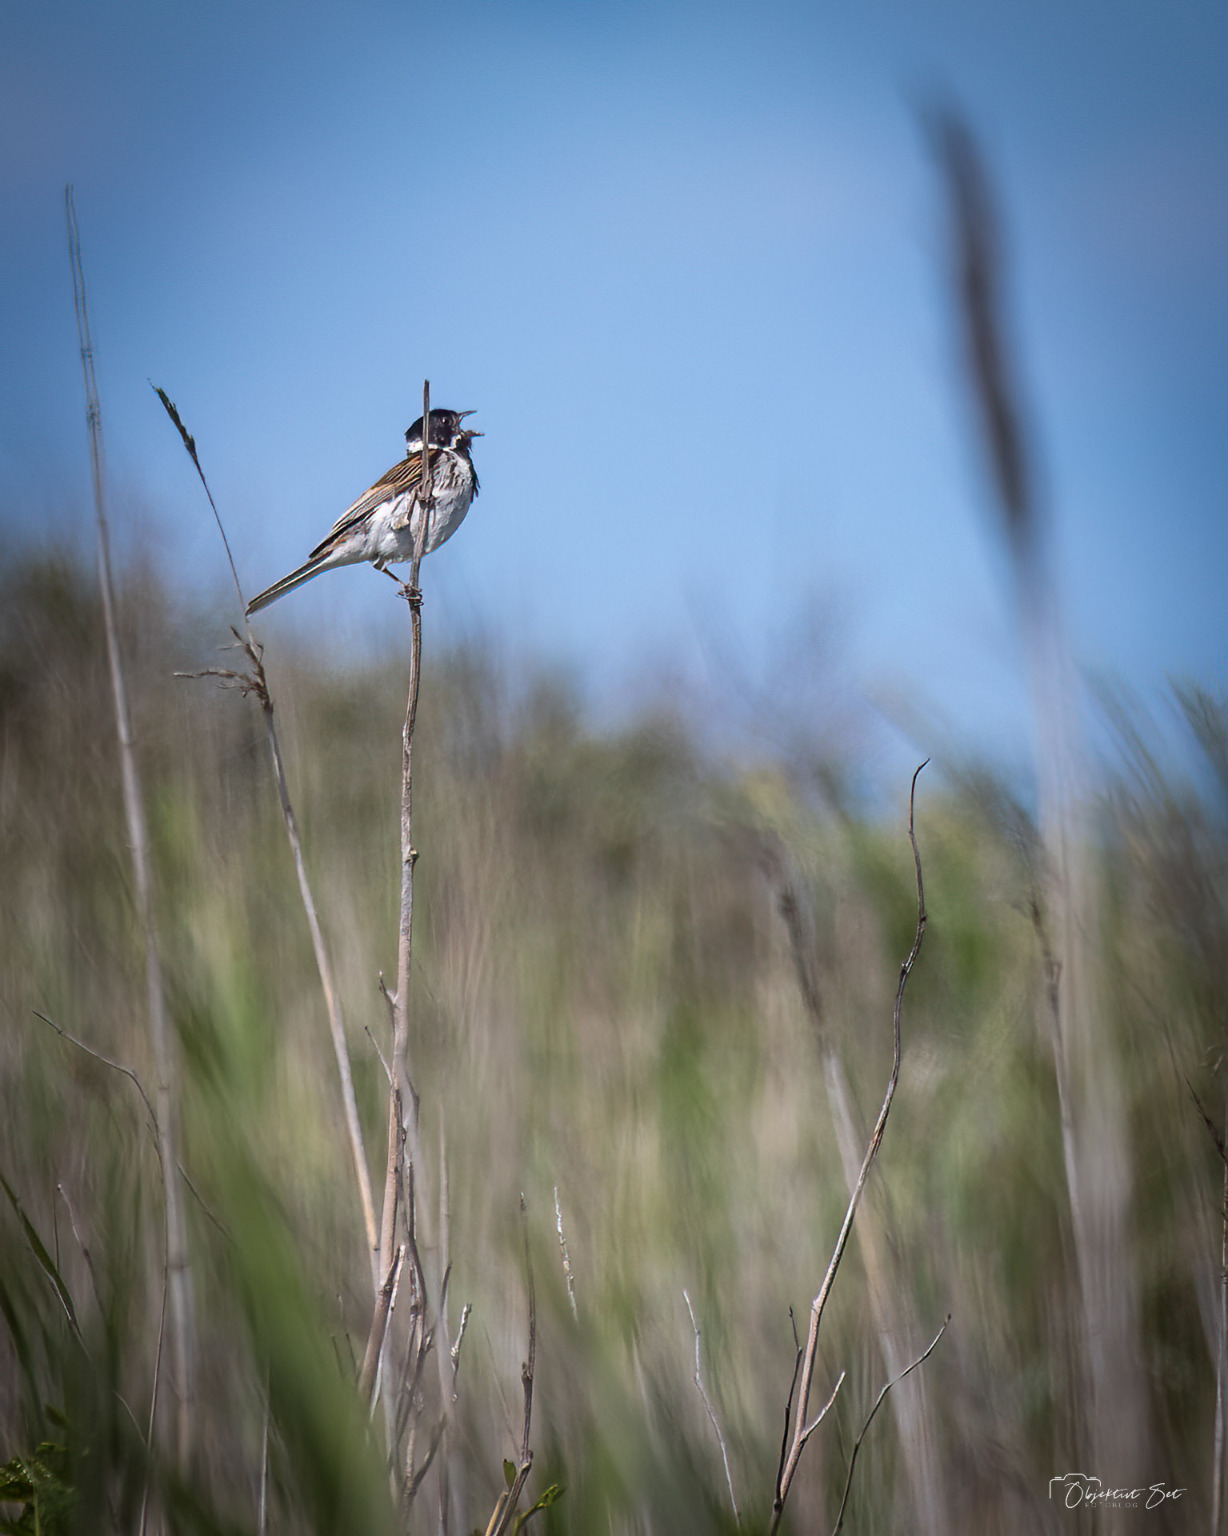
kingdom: Animalia
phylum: Chordata
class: Aves
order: Passeriformes
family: Emberizidae
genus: Emberiza
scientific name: Emberiza schoeniclus
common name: Rørspurv
